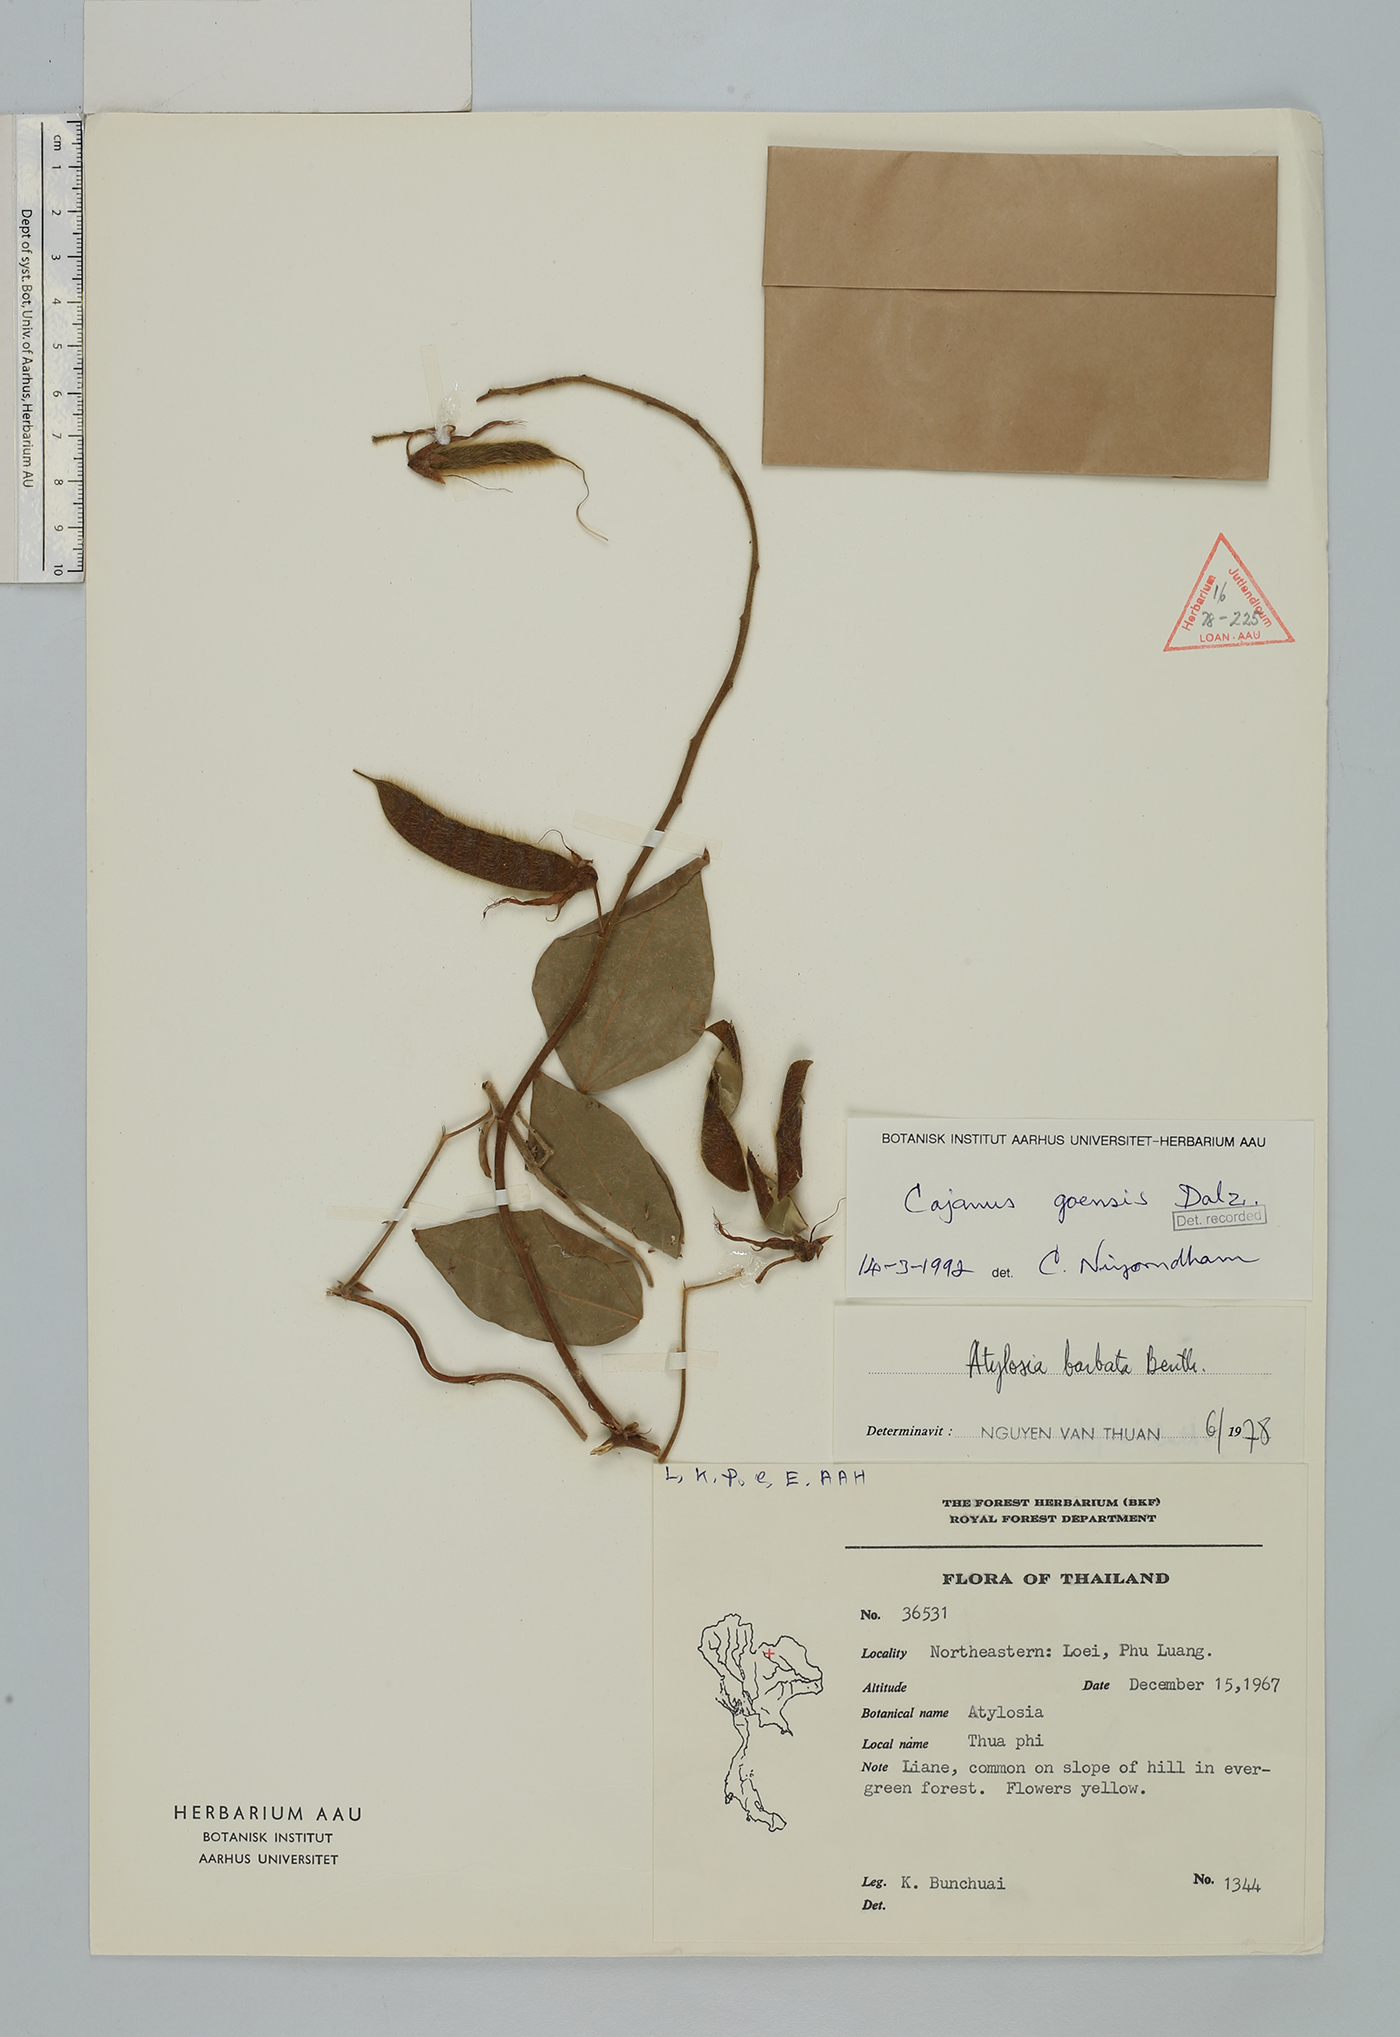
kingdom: Plantae
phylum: Tracheophyta
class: Magnoliopsida
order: Fabales
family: Fabaceae
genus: Cajanus
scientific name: Cajanus goensis
